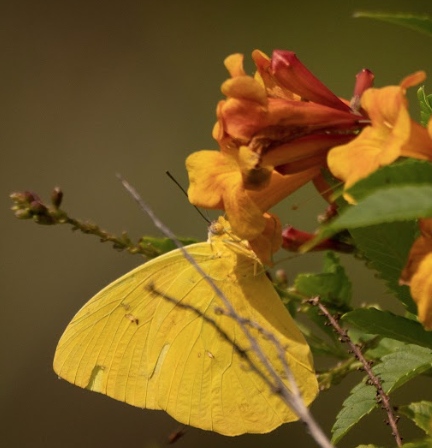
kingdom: Animalia
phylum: Arthropoda
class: Insecta
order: Lepidoptera
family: Pieridae
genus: Phoebis
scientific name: Phoebis philea
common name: Orange-barred Sulphur
